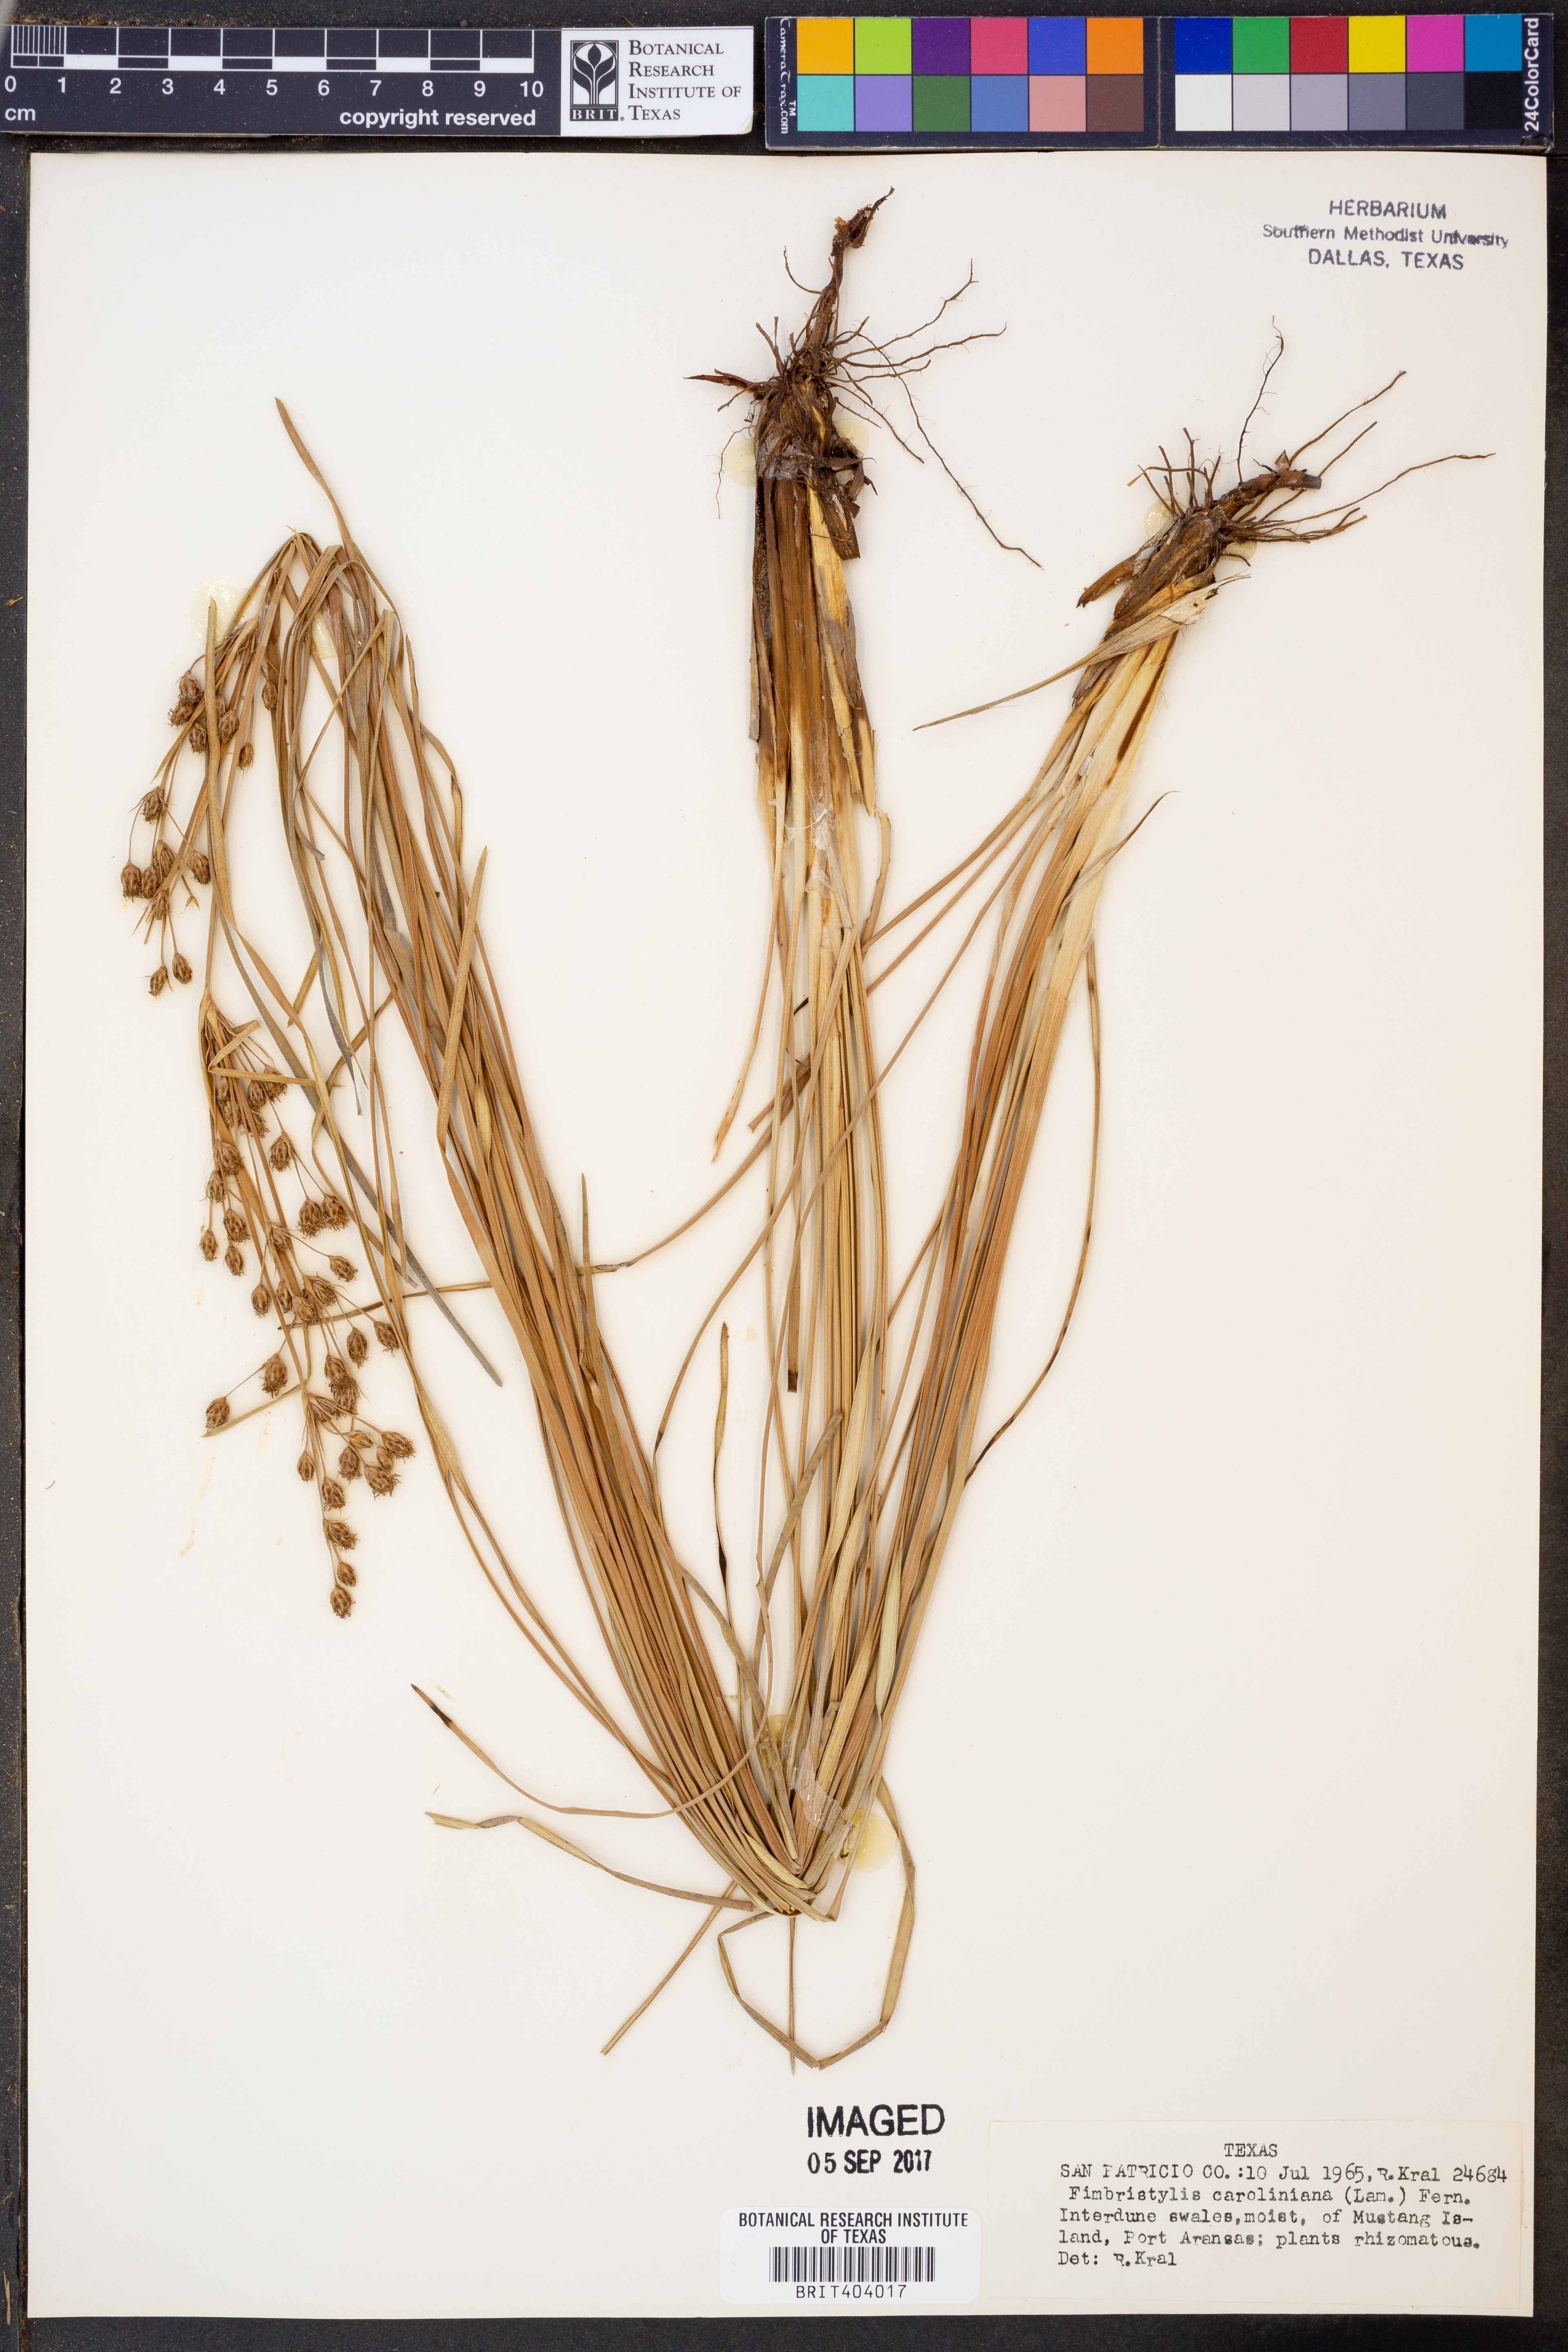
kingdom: Plantae
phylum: Tracheophyta
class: Liliopsida
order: Poales
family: Cyperaceae
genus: Fimbristylis
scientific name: Fimbristylis caroliniana
